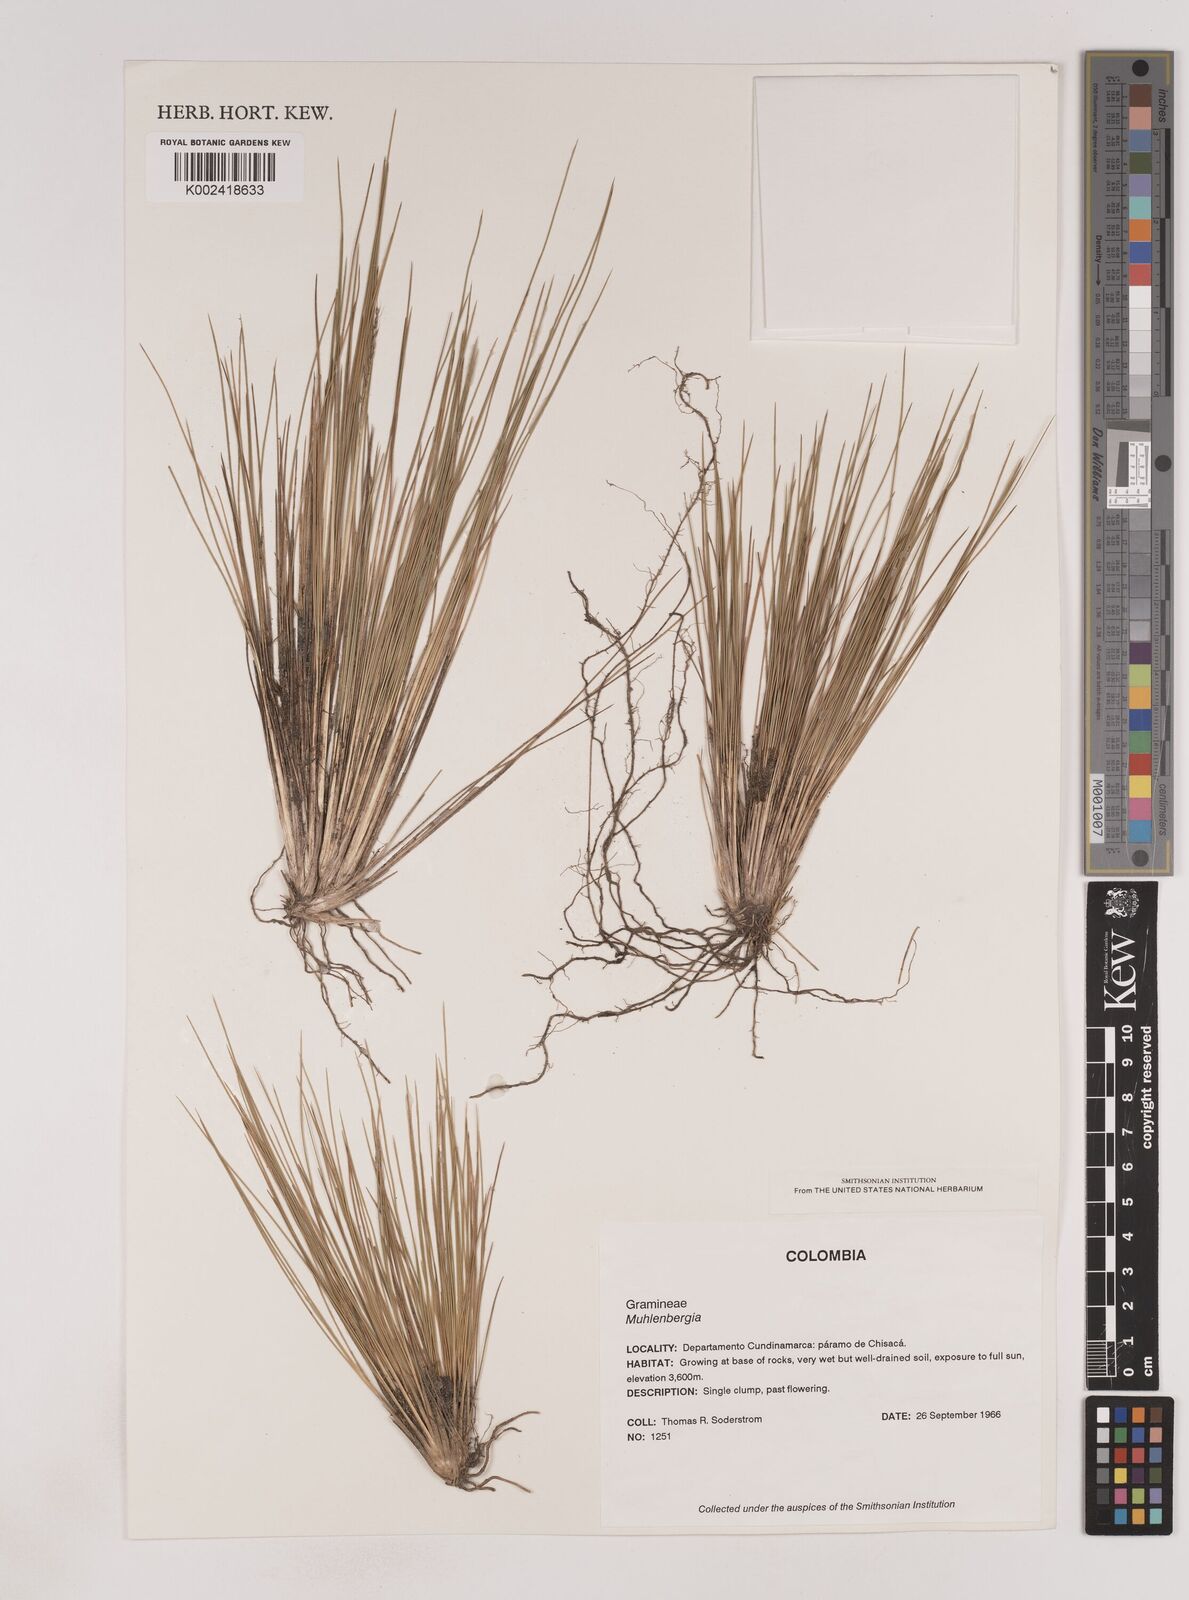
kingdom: Plantae
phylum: Tracheophyta
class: Liliopsida
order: Poales
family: Poaceae
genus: Lorenzochloa
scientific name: Lorenzochloa erectifolia
